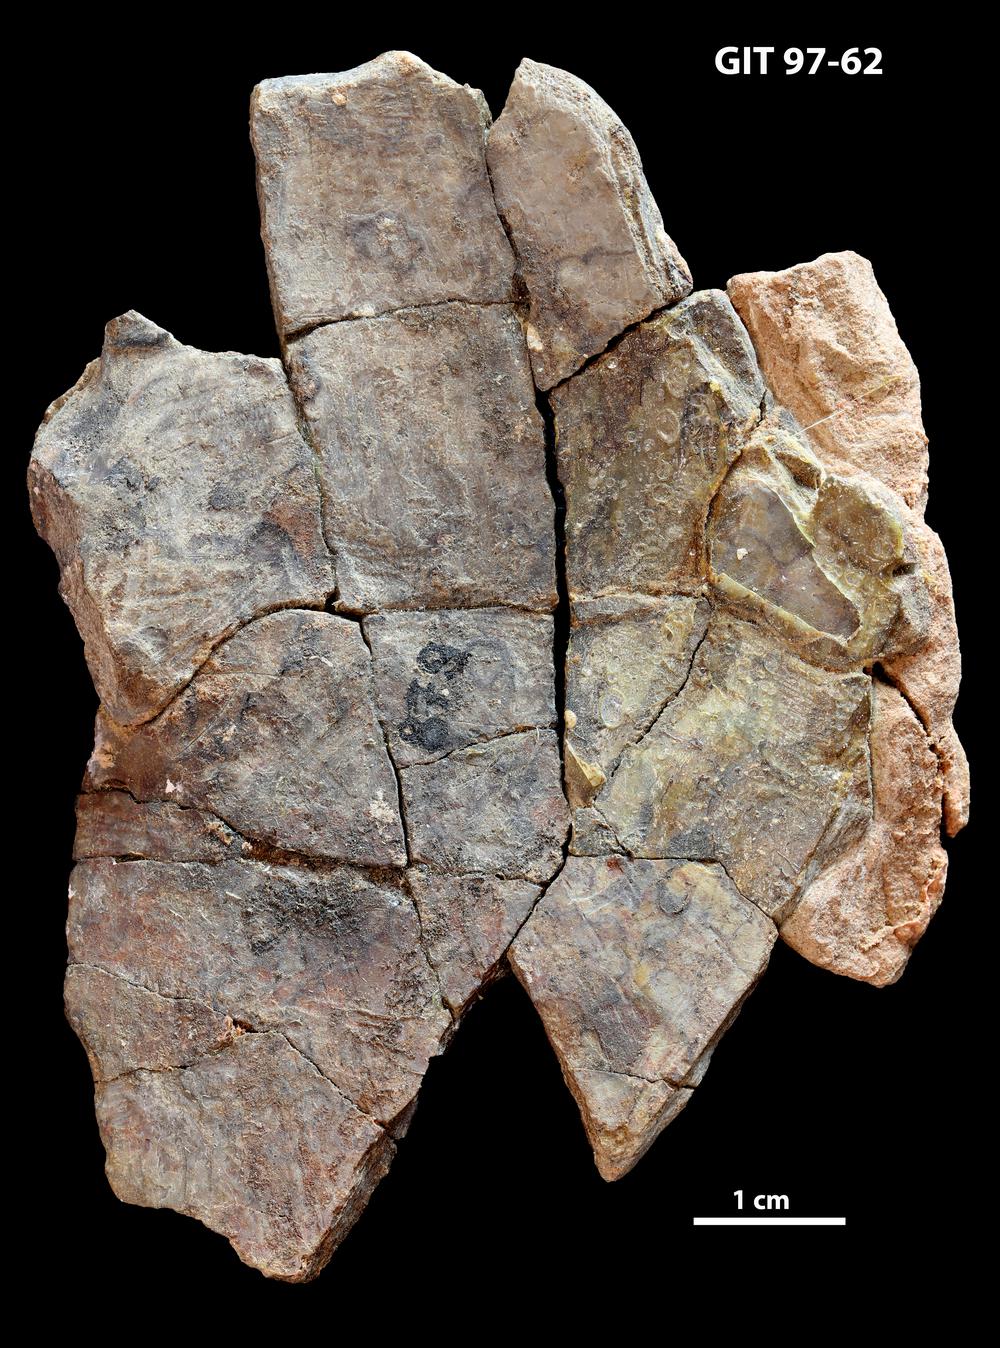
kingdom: Animalia
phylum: Chordata
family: Holonematidae
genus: Holonema
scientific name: Holonema
